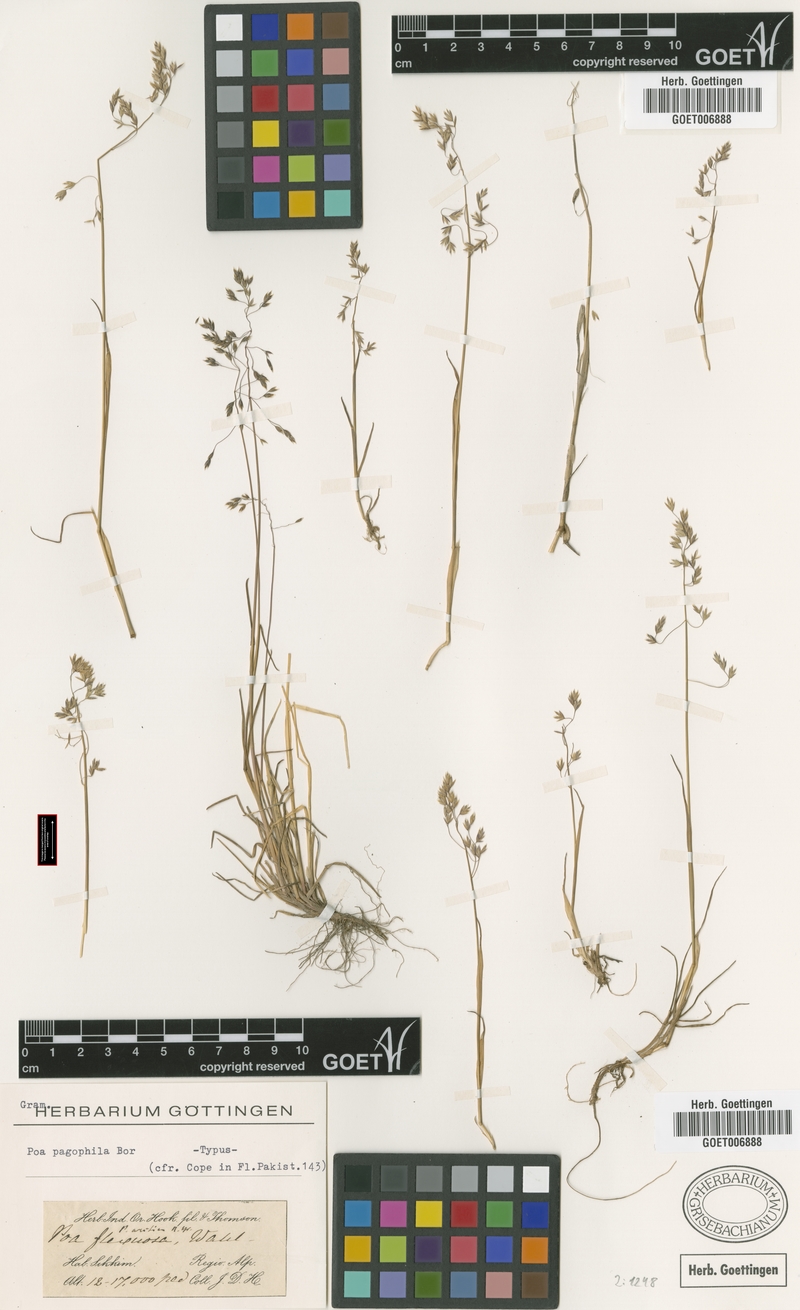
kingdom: Plantae
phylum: Tracheophyta
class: Liliopsida
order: Poales
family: Poaceae
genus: Poa
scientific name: Poa pagophila
